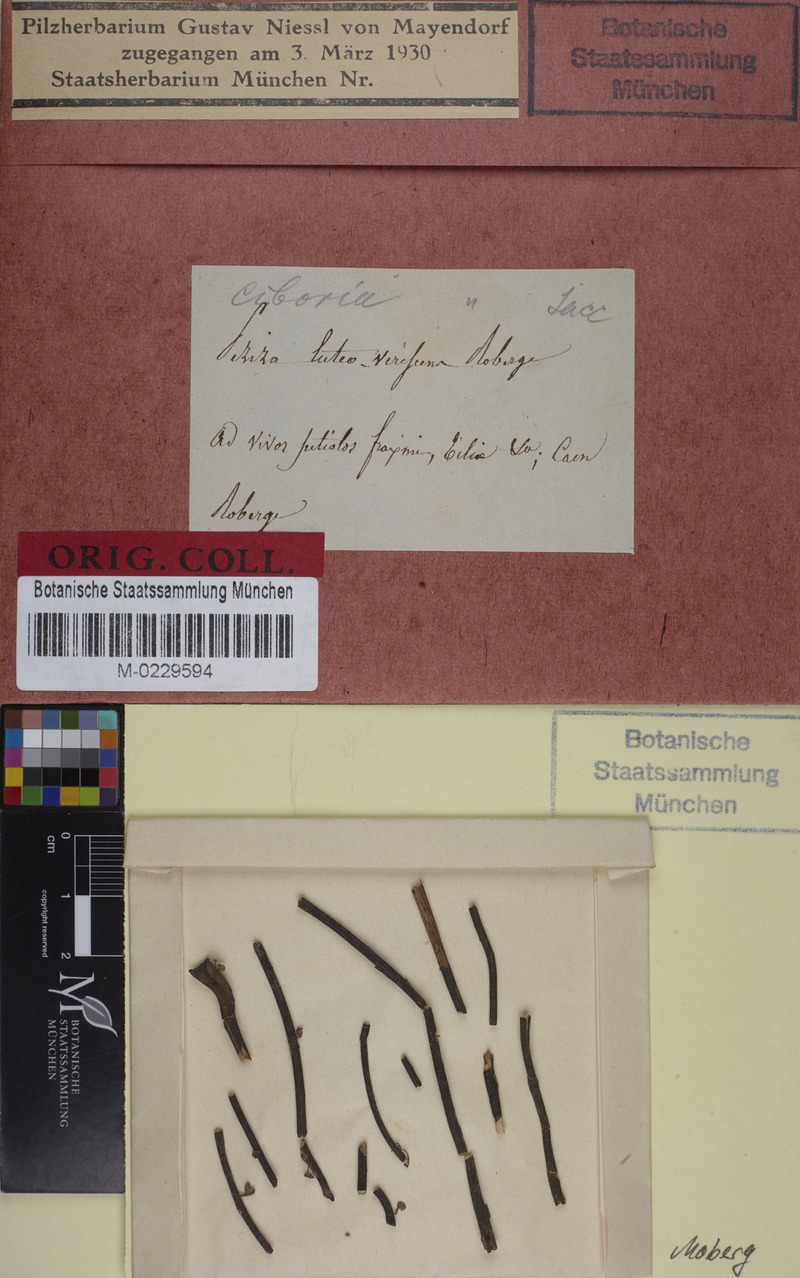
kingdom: Fungi
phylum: Ascomycota
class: Leotiomycetes
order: Helotiales
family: Rutstroemiaceae
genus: Lanzia
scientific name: Lanzia luteovirescens
